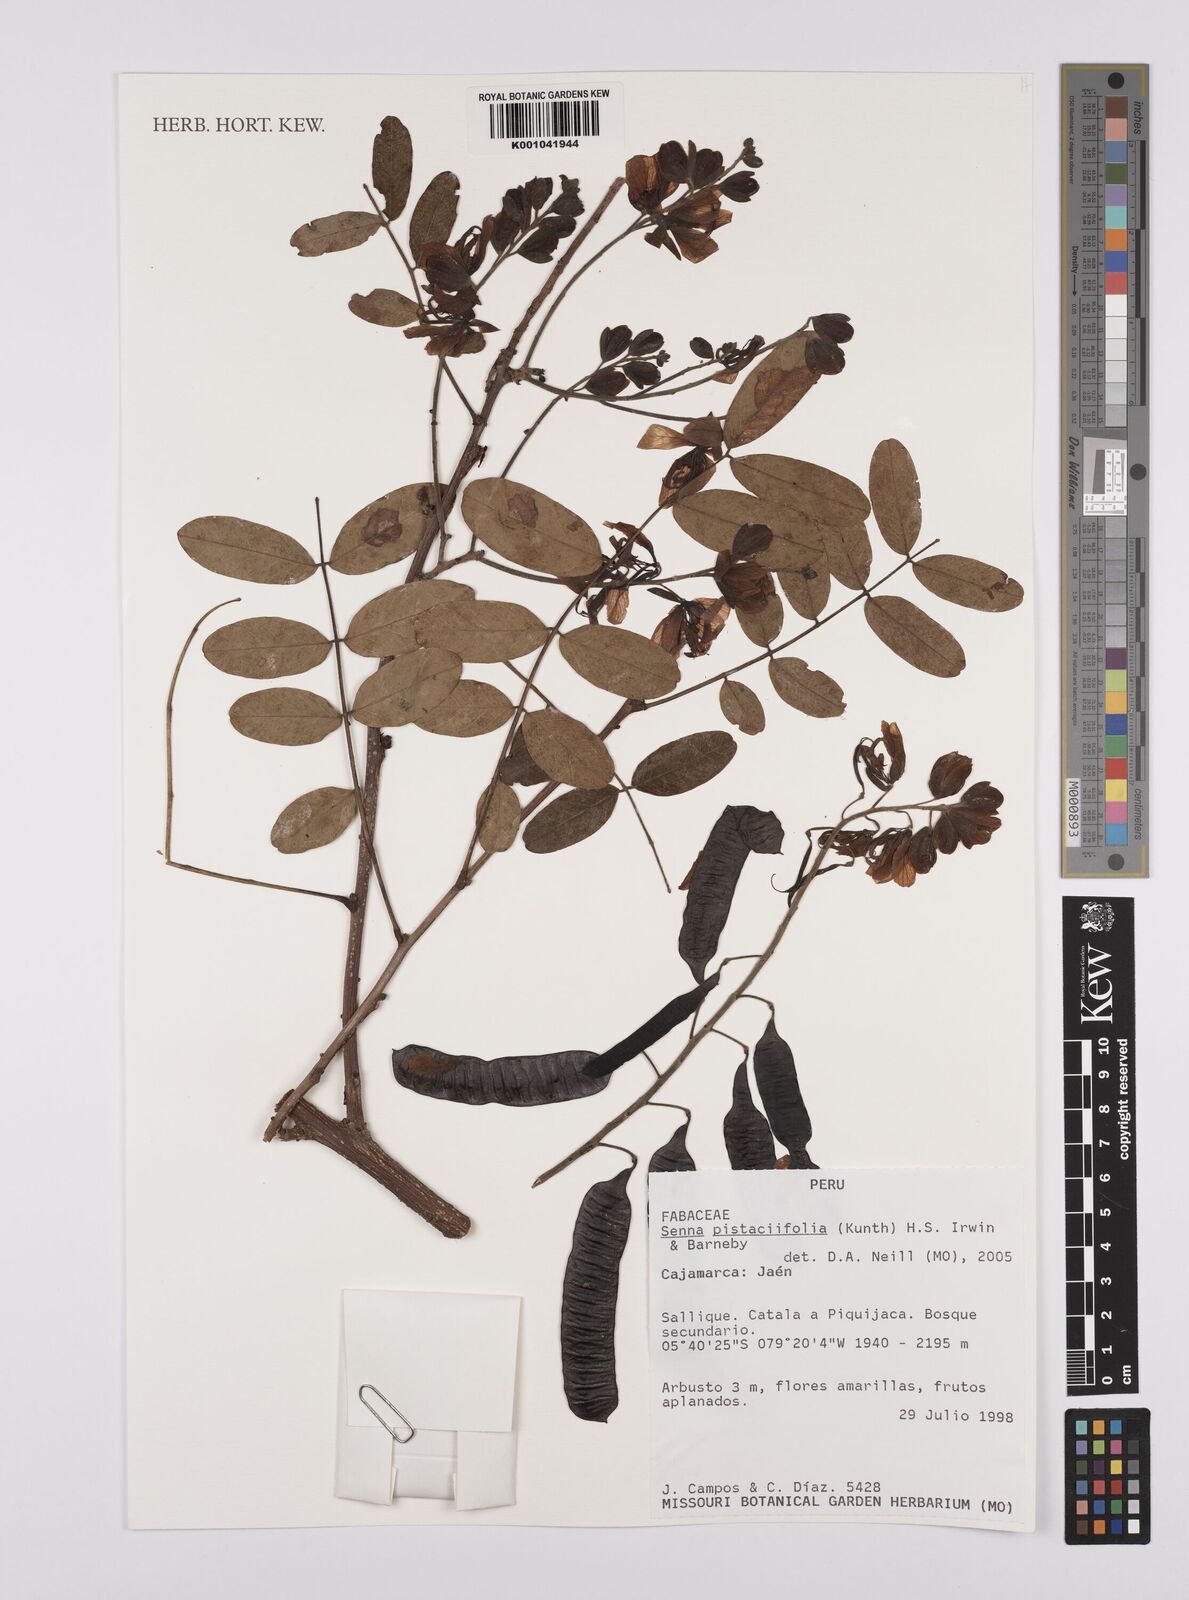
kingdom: Plantae
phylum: Tracheophyta
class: Magnoliopsida
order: Fabales
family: Fabaceae
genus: Senna
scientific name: Senna pistaciifolia
